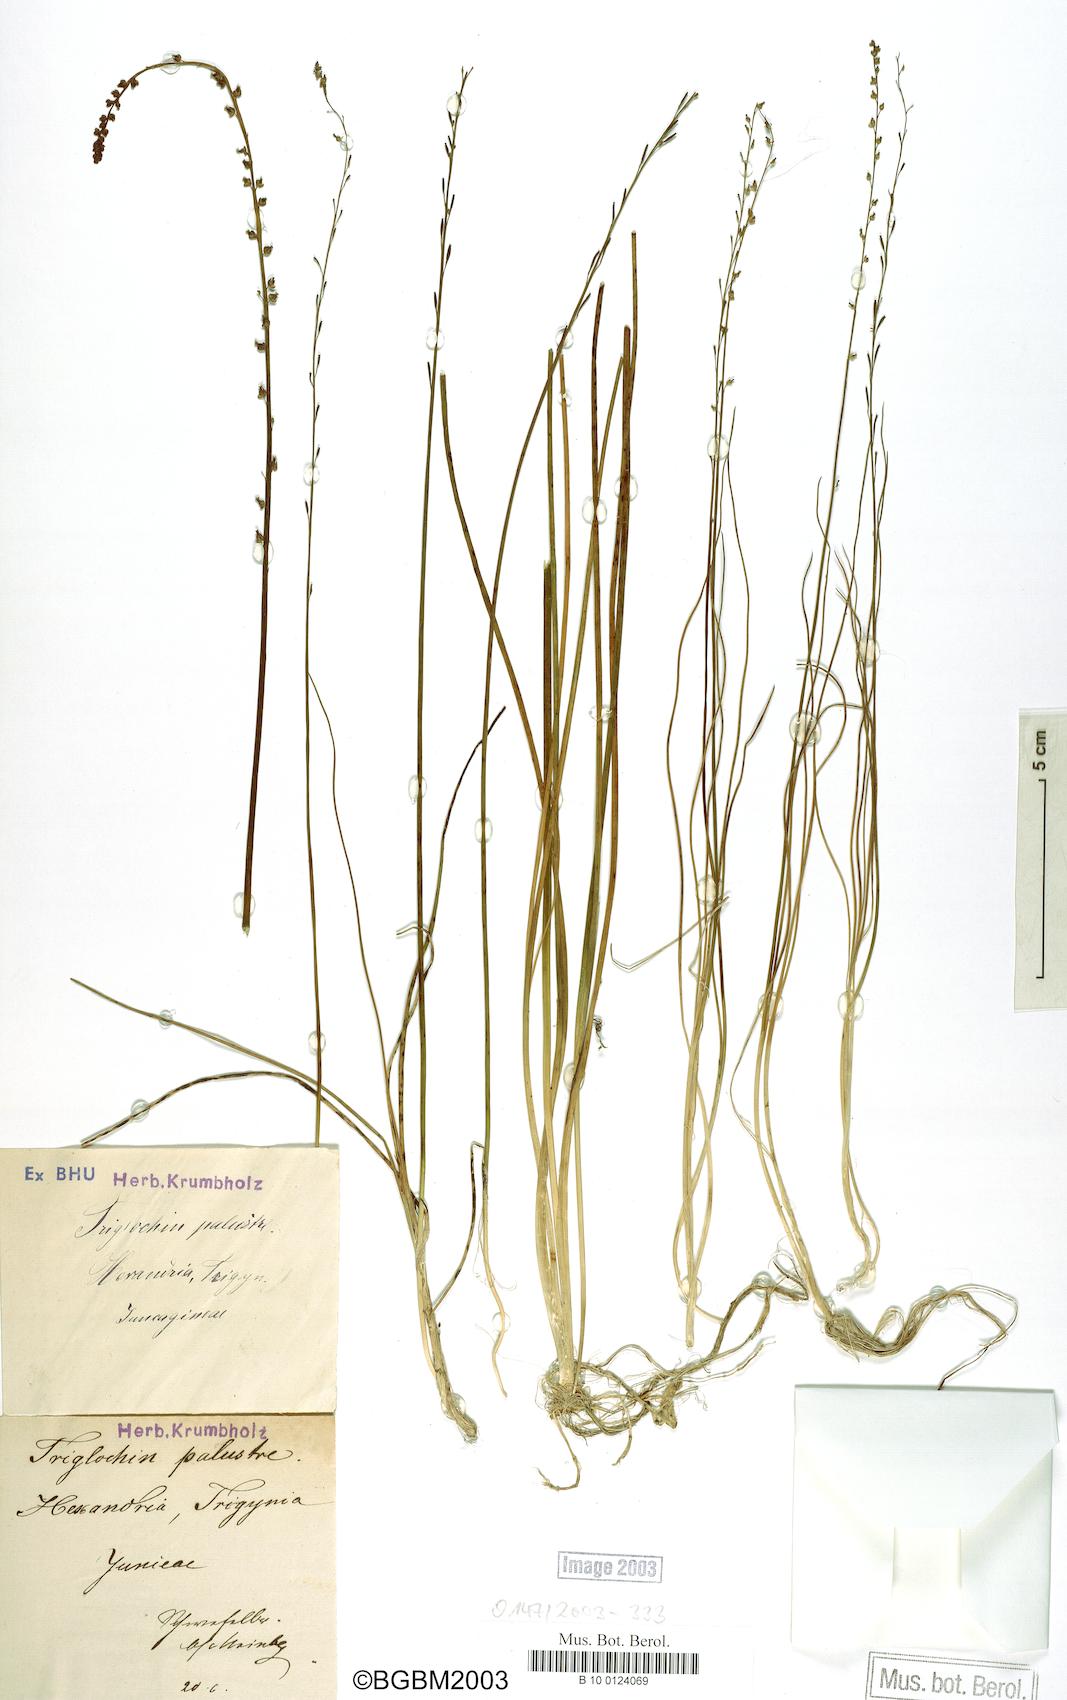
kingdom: Plantae
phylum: Tracheophyta
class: Liliopsida
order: Alismatales
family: Juncaginaceae
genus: Triglochin
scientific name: Triglochin palustris
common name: Marsh arrowgrass
